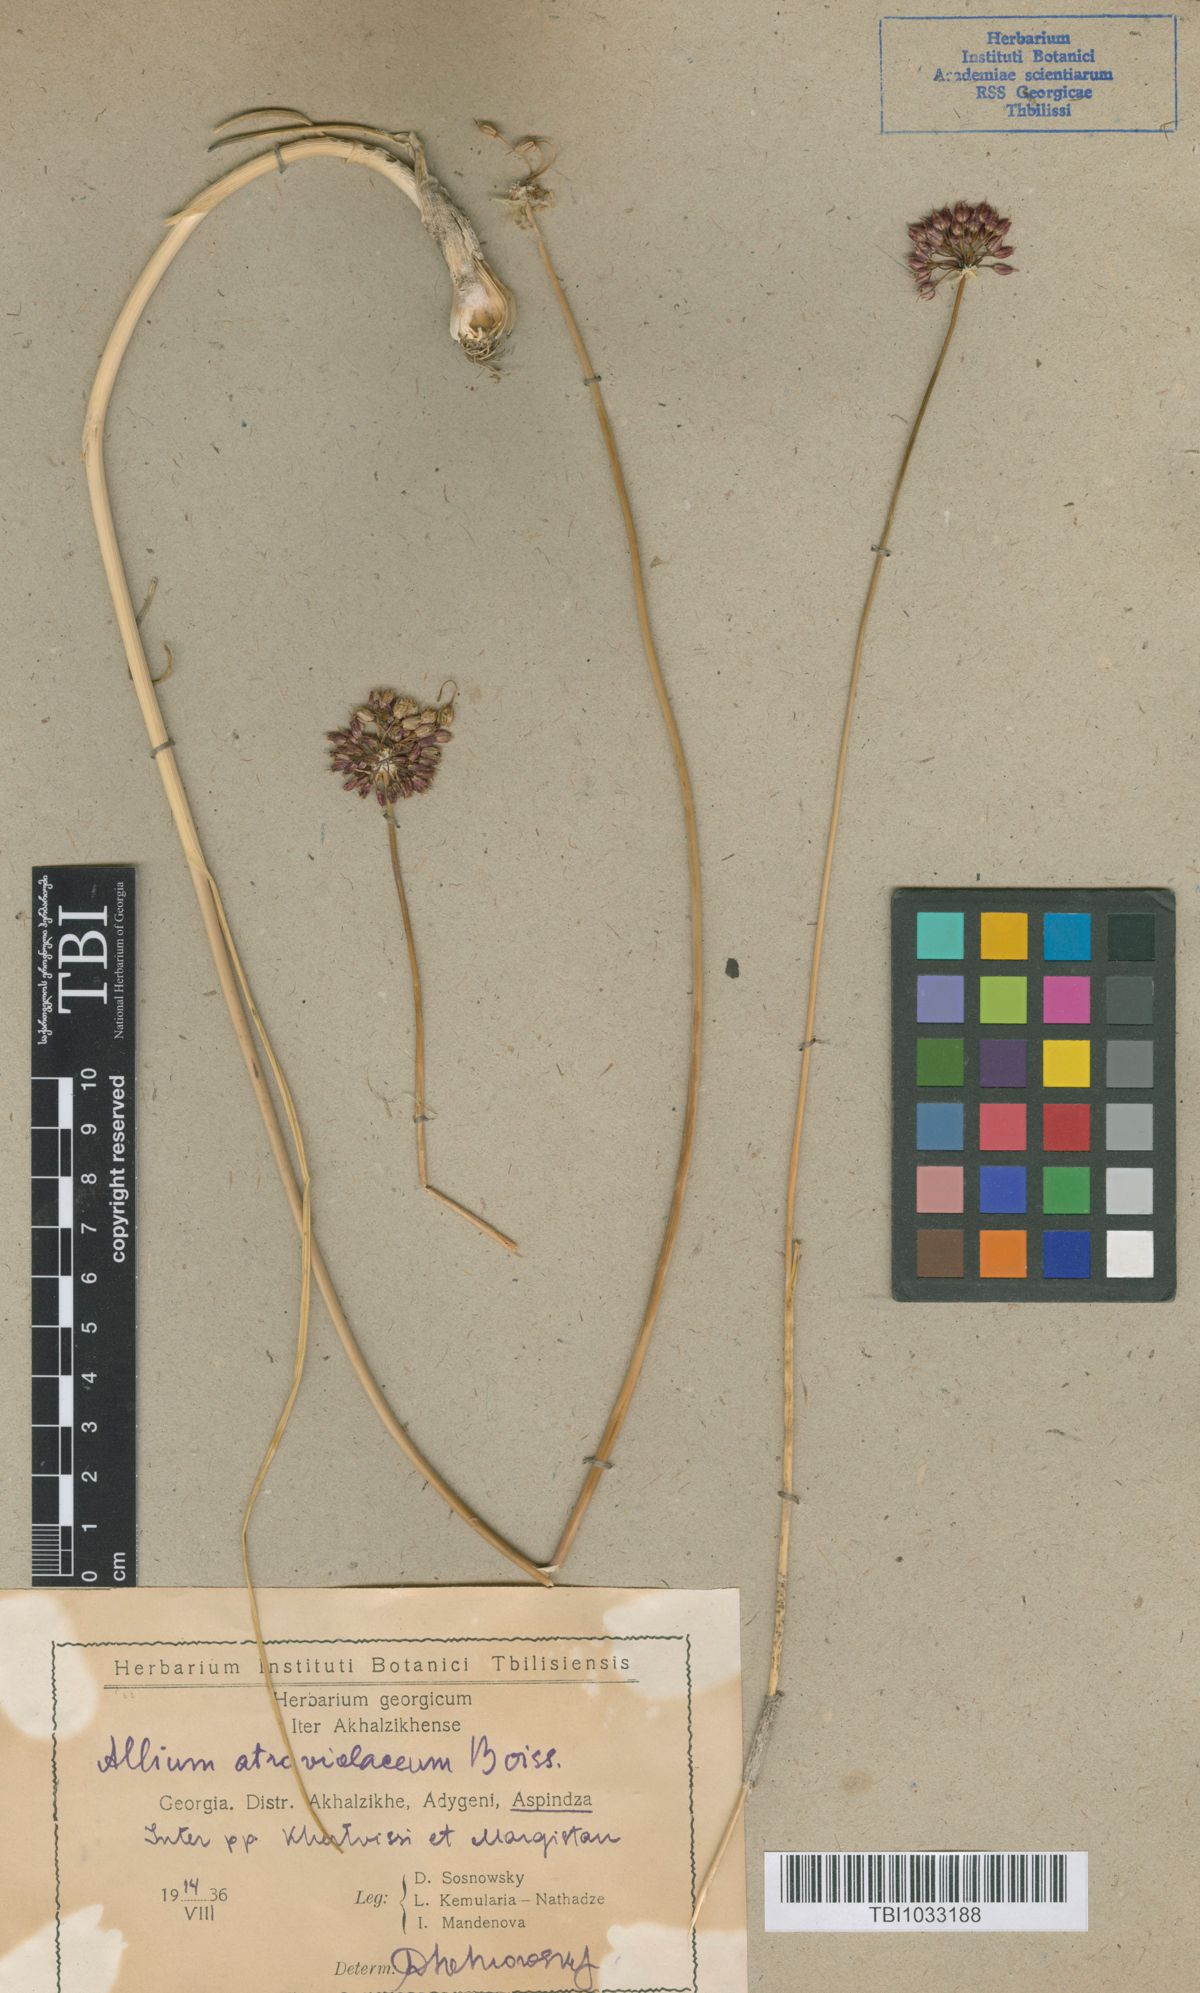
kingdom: Plantae
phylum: Tracheophyta
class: Liliopsida
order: Asparagales
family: Amaryllidaceae
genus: Allium
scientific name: Allium atroviolaceum
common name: Broadleaf wild leek
